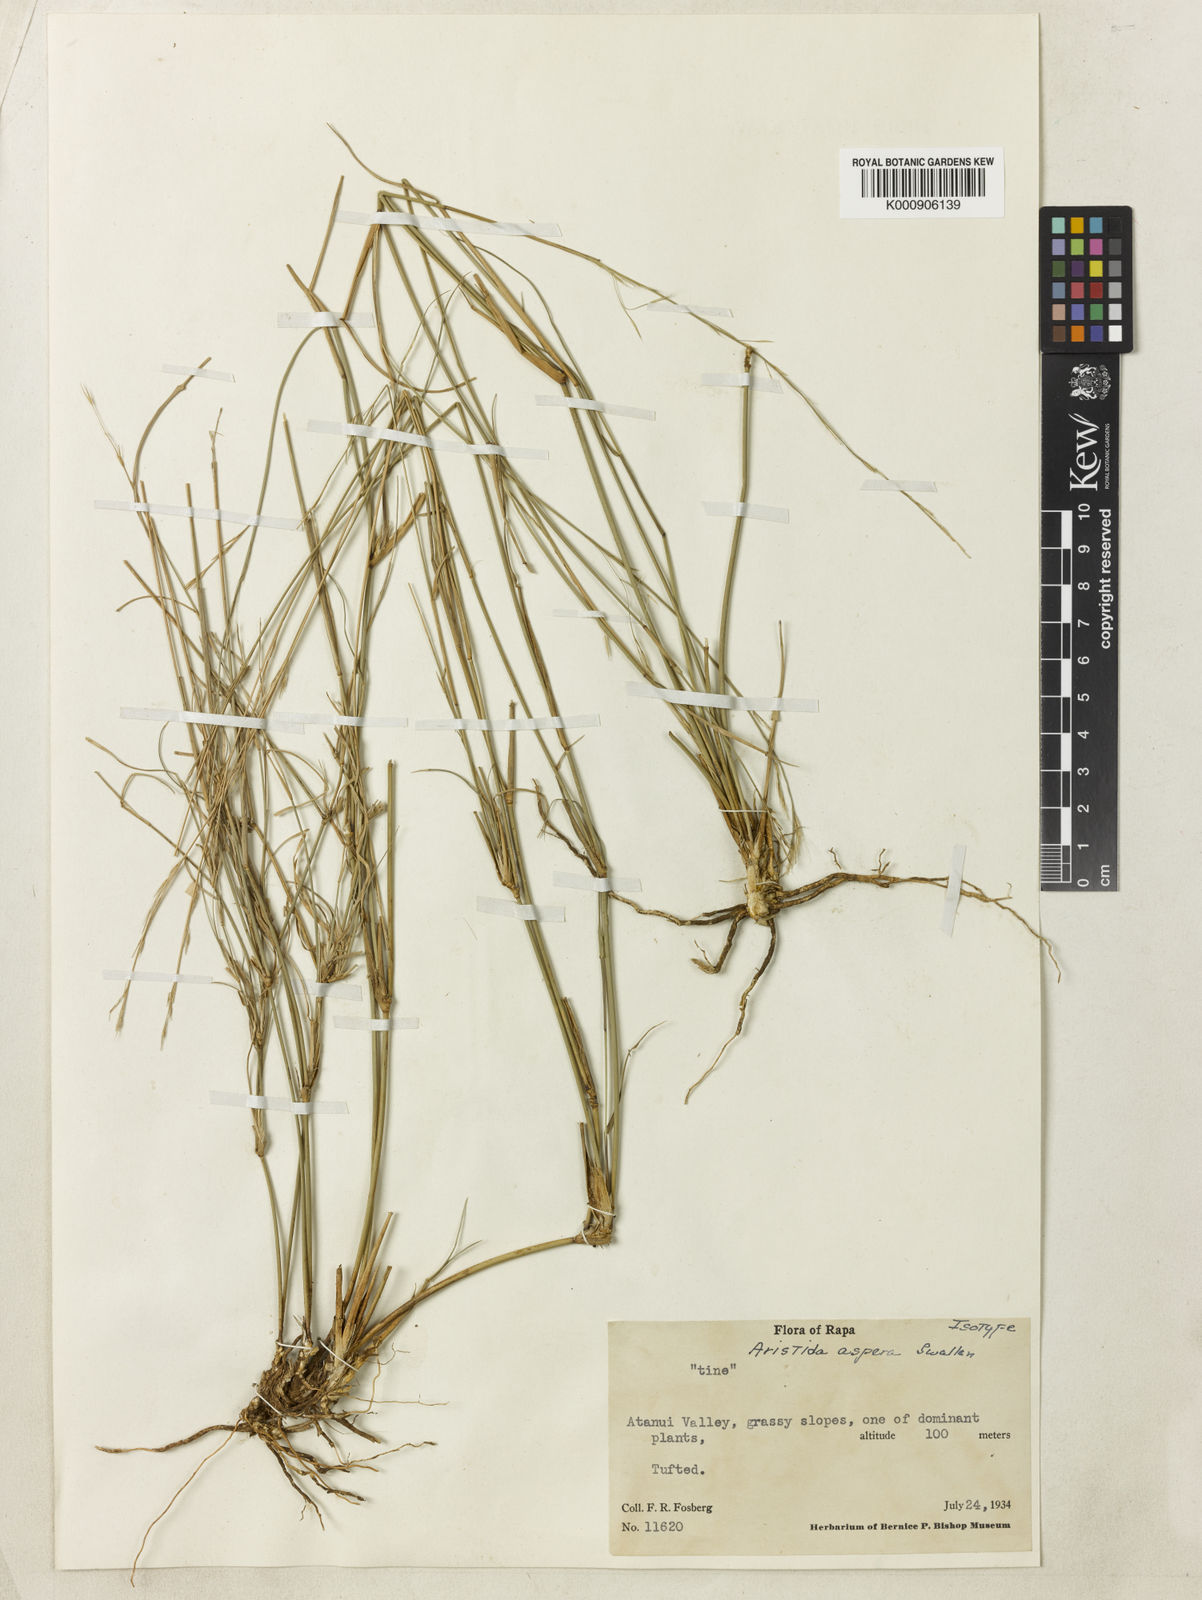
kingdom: Plantae
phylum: Tracheophyta
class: Liliopsida
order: Poales
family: Poaceae
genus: Aristida
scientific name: Aristida ramosa
